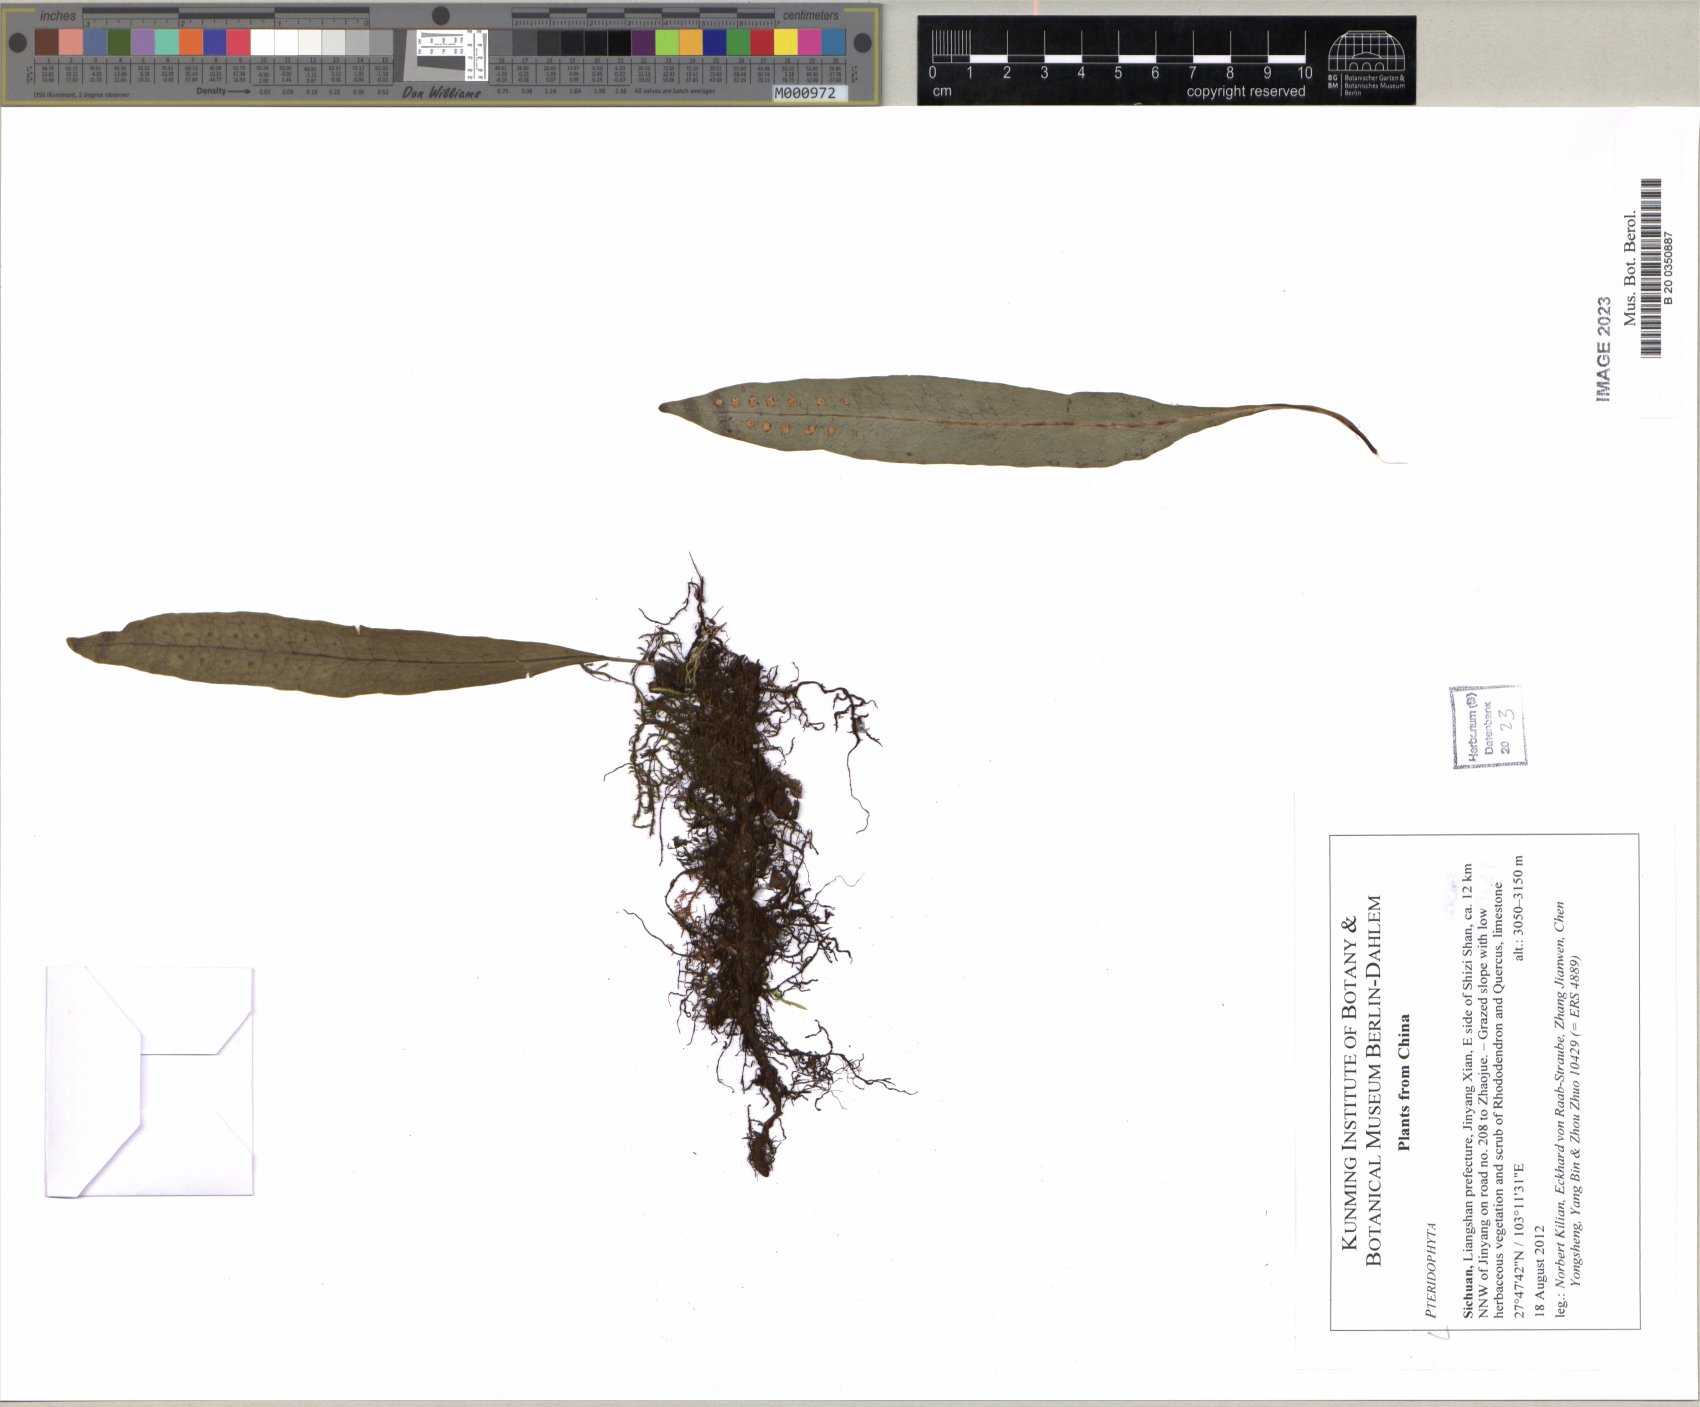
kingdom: Plantae
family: Pteridophyta
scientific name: Pteridophyta
